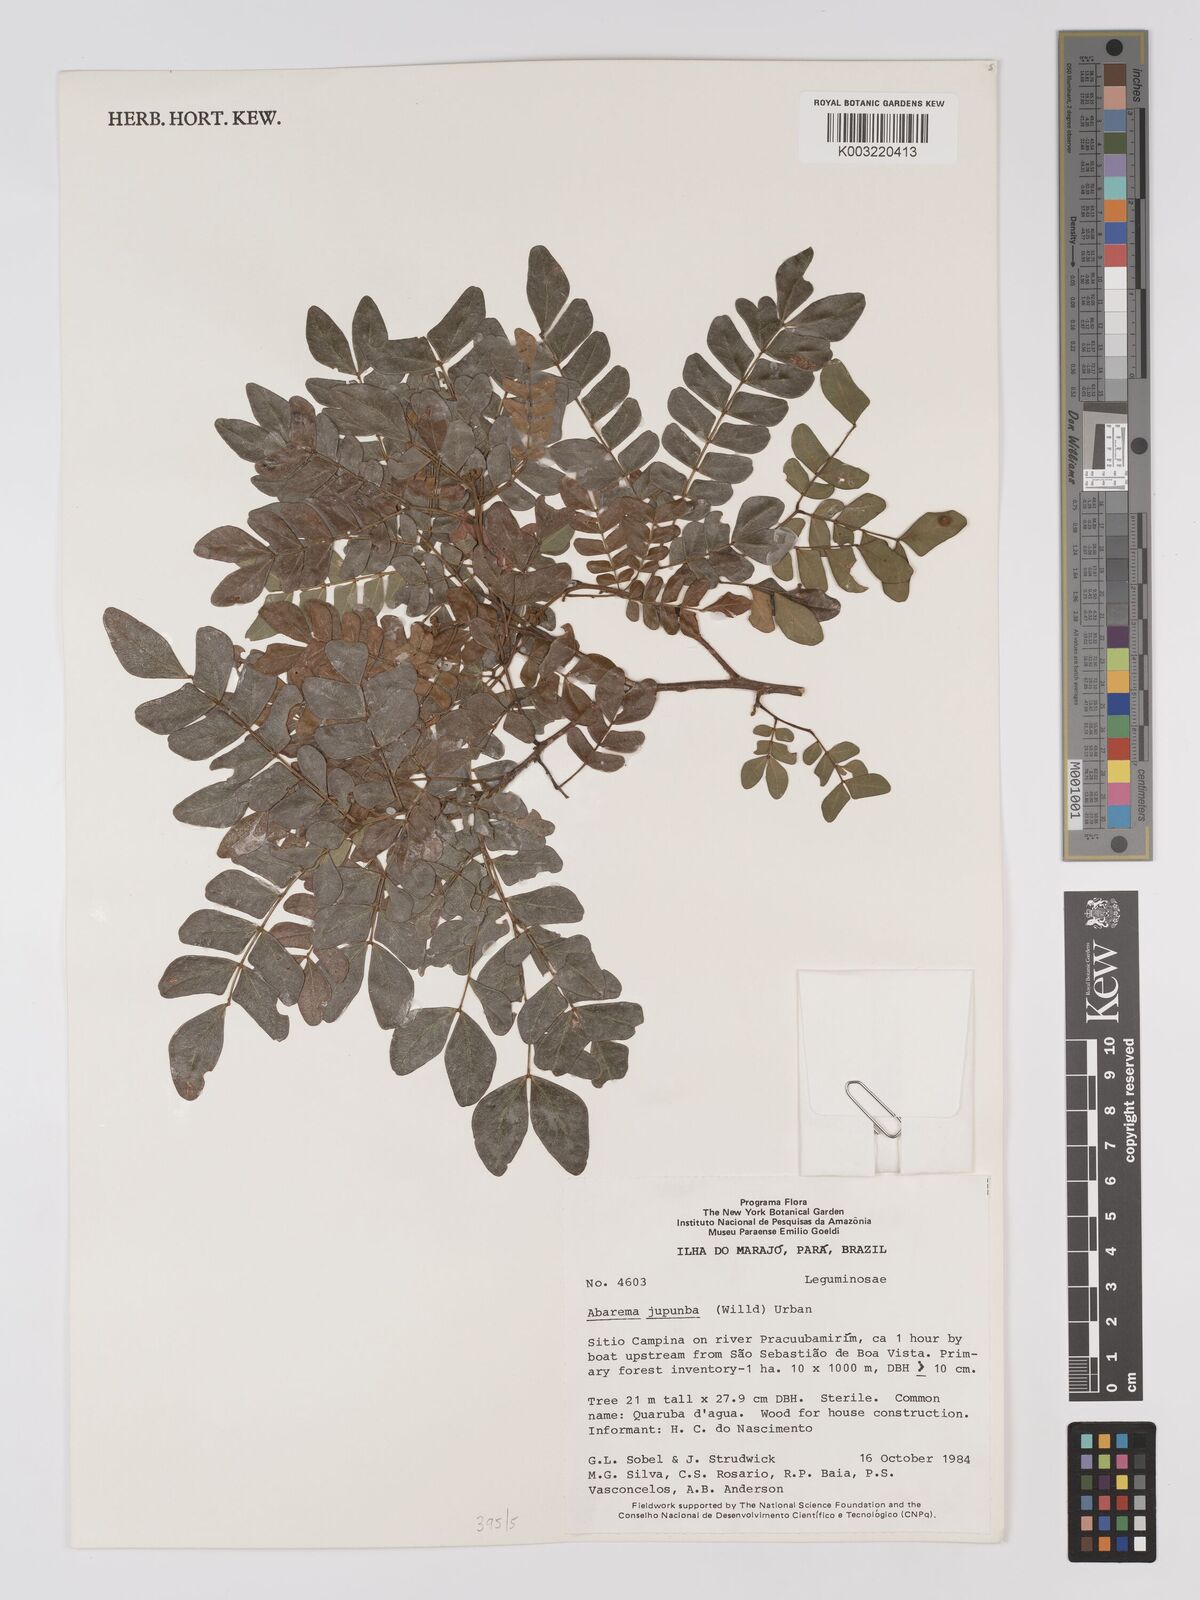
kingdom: Plantae
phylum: Tracheophyta
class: Magnoliopsida
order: Fabales
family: Fabaceae
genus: Jupunba
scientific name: Jupunba trapezifolia
